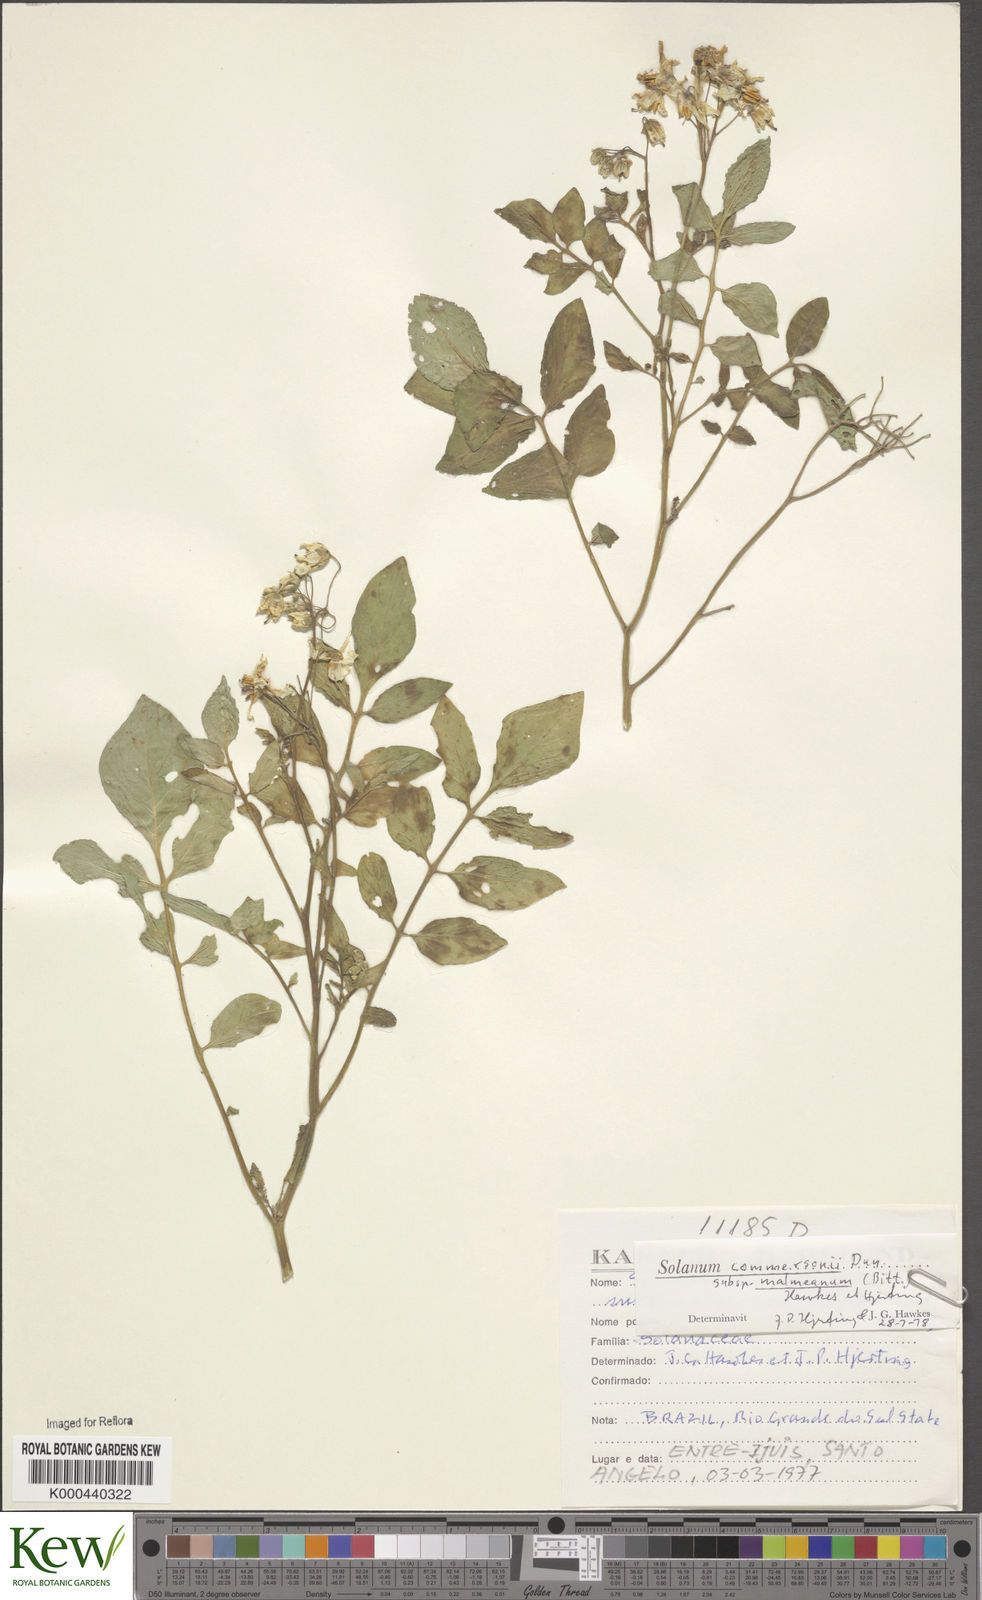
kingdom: Plantae
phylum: Tracheophyta
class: Magnoliopsida
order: Solanales
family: Solanaceae
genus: Solanum
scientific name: Solanum commersonii
